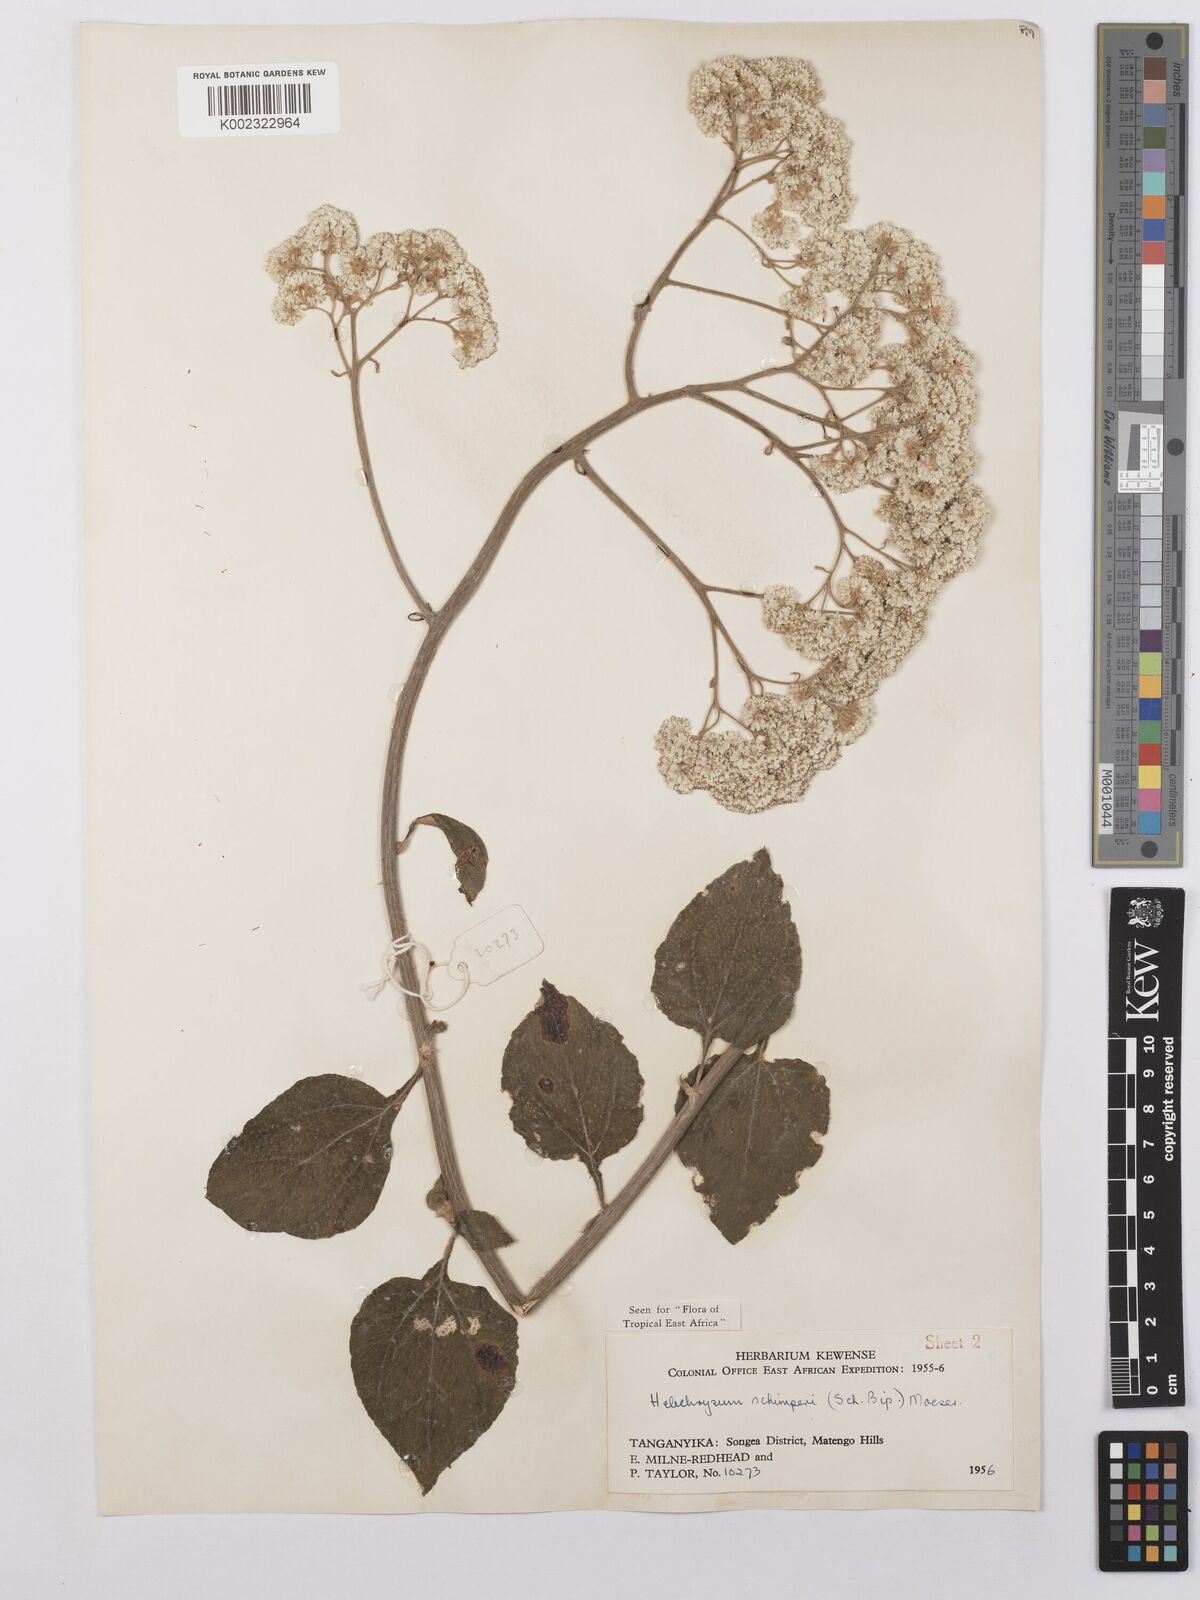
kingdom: Plantae
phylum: Tracheophyta
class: Magnoliopsida
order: Asterales
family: Asteraceae
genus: Helichrysum
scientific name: Helichrysum schimperi
